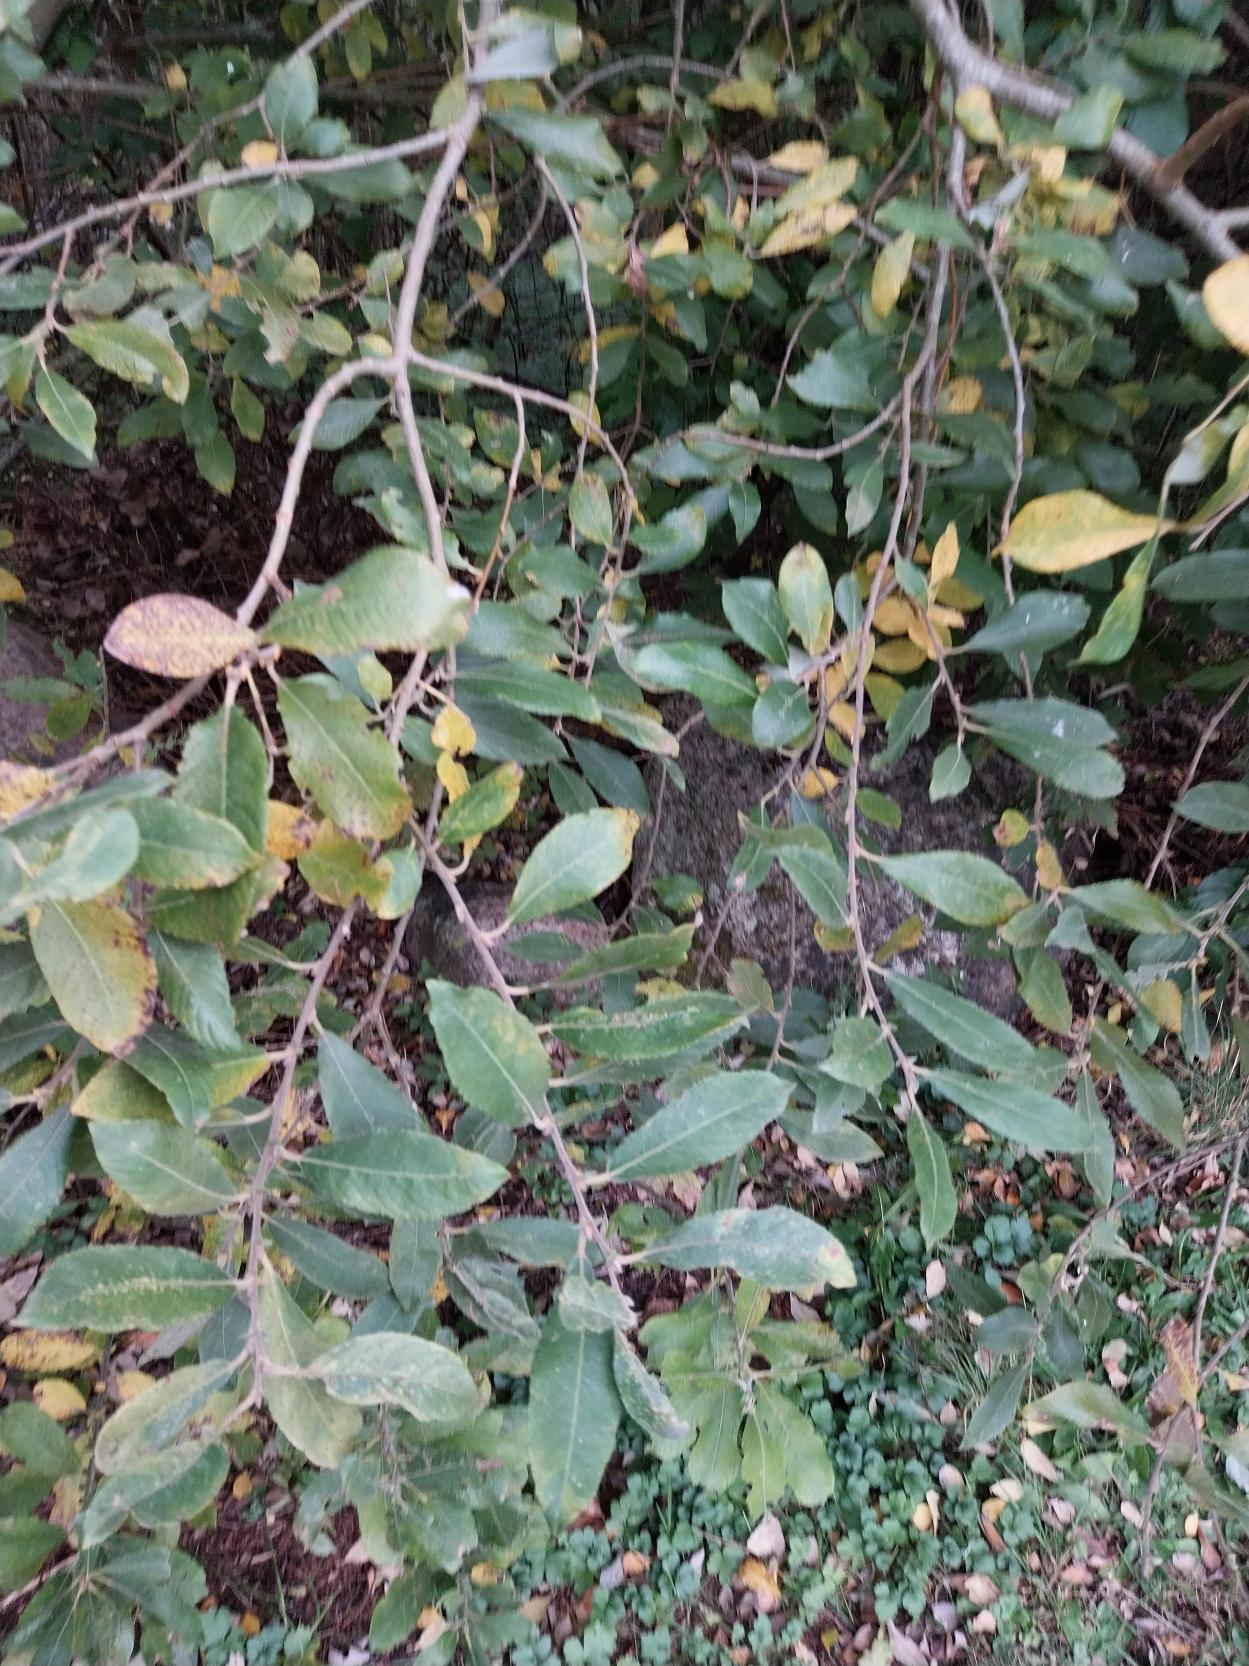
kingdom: Plantae
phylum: Tracheophyta
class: Magnoliopsida
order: Malpighiales
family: Salicaceae
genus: Salix
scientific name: Salix cinerea
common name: Grå-pil
